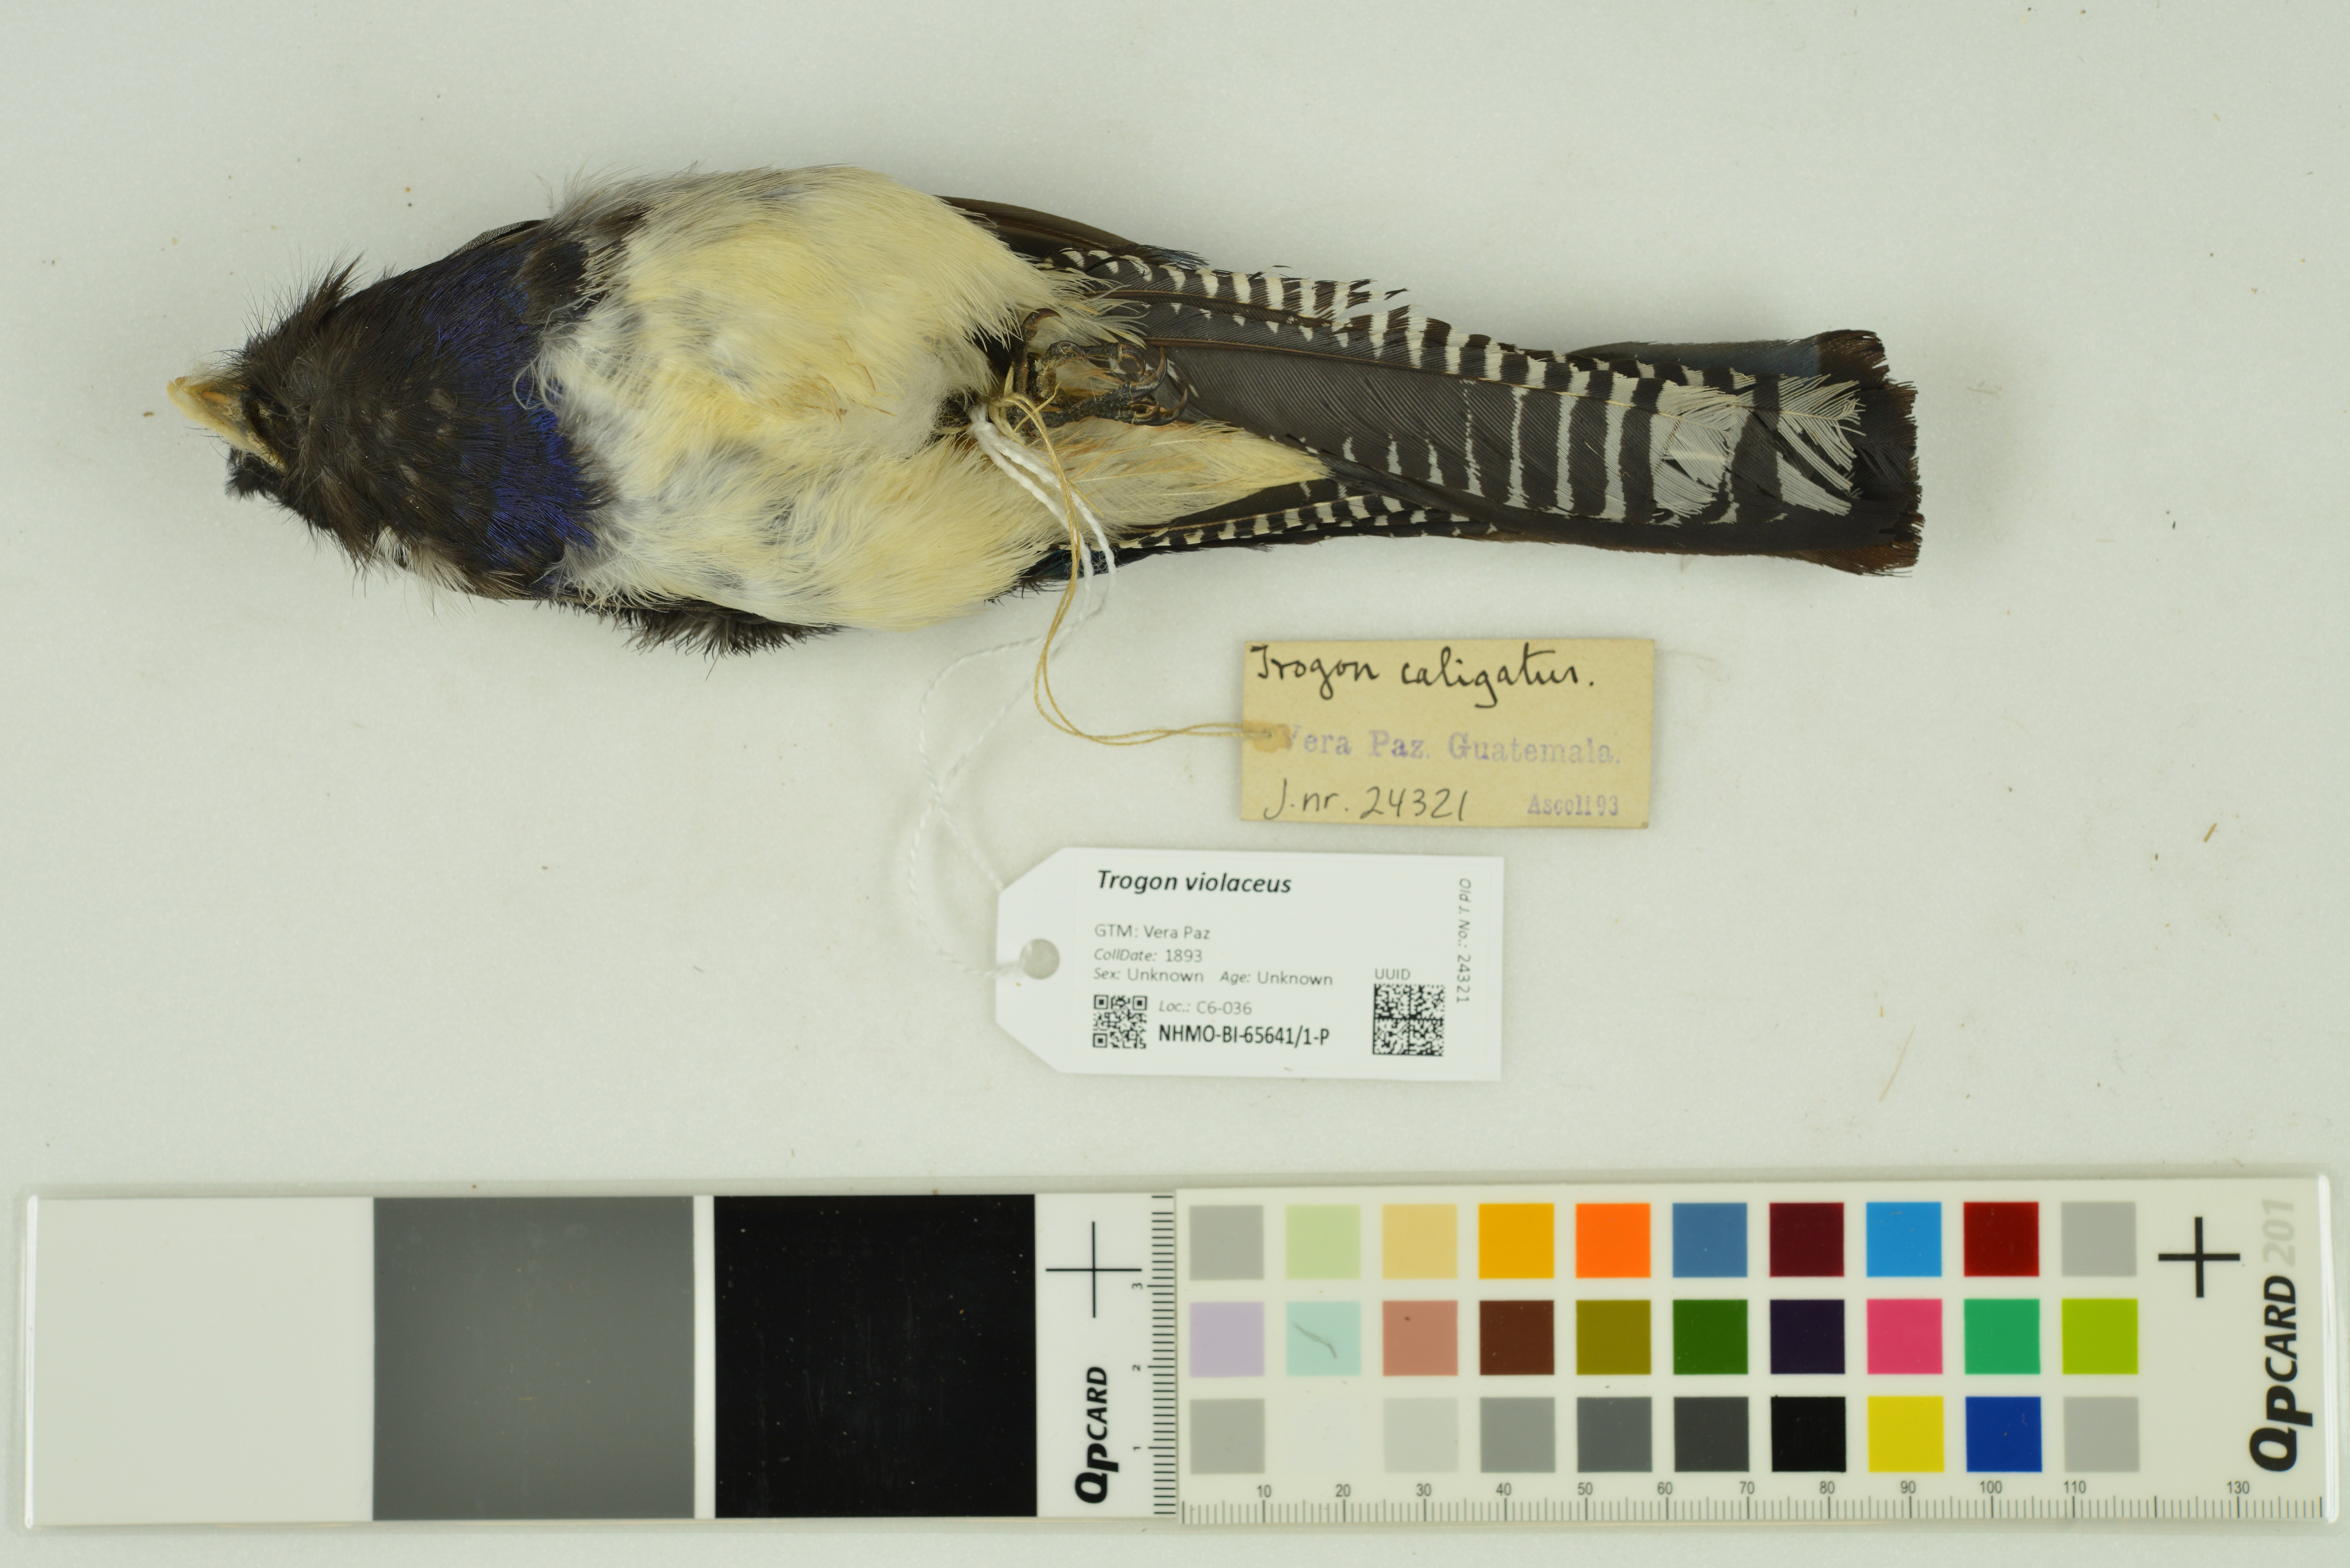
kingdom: Animalia
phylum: Chordata
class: Aves
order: Trogoniformes
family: Trogonidae
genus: Trogon
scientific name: Trogon violaceus
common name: Guianan trogon
